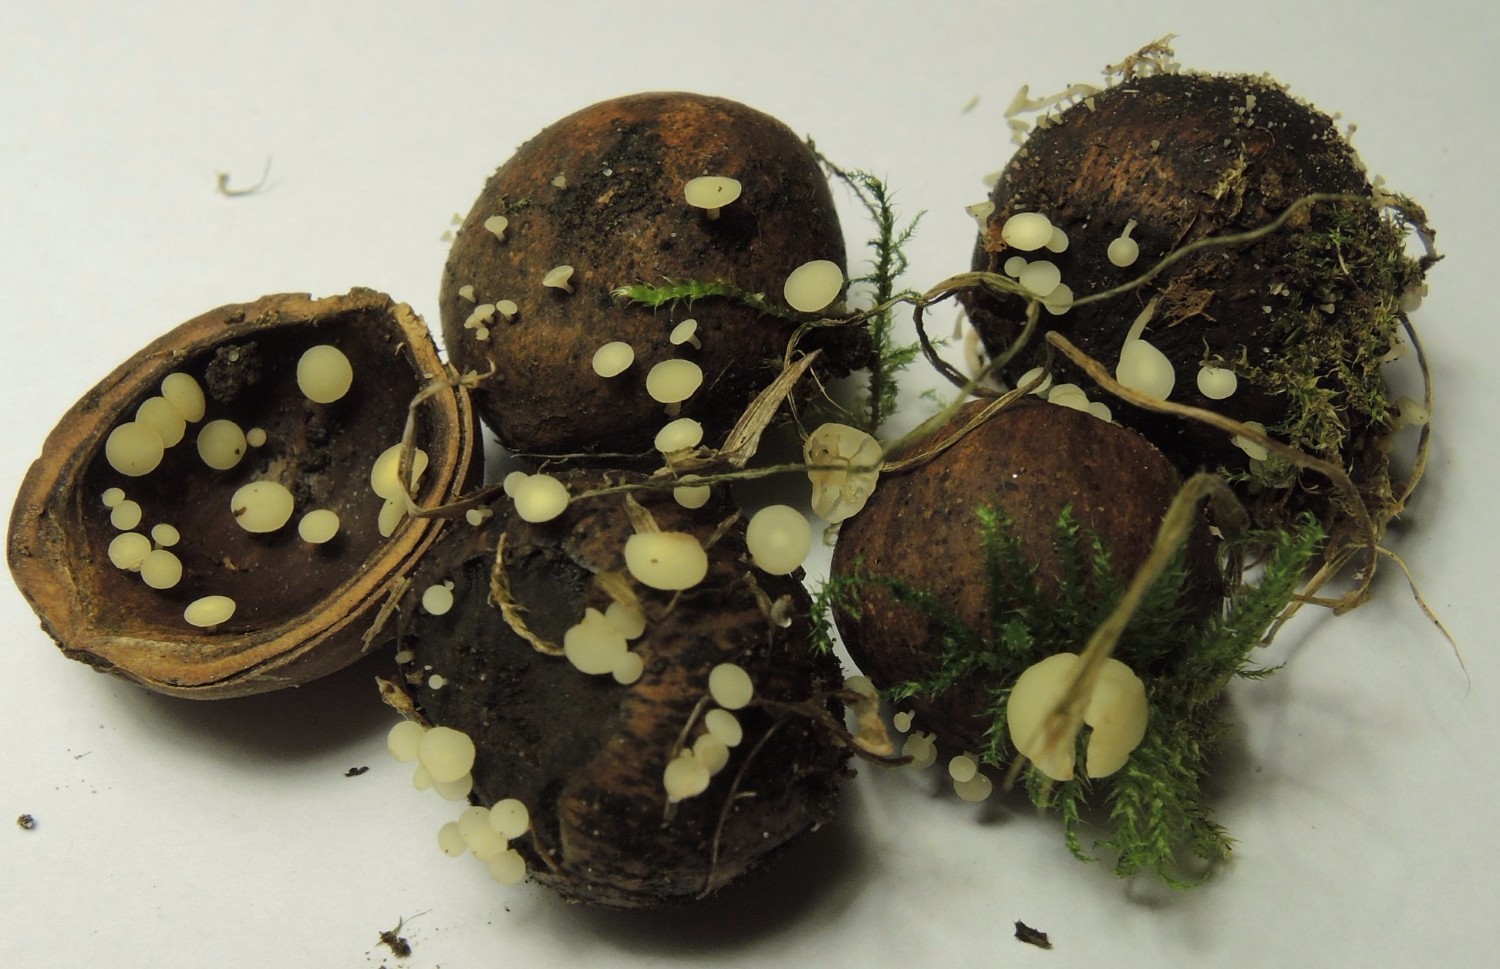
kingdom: Fungi
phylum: Ascomycota
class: Leotiomycetes
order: Helotiales
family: Helotiaceae
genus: Hymenoscyphus
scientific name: Hymenoscyphus rokebyensis
